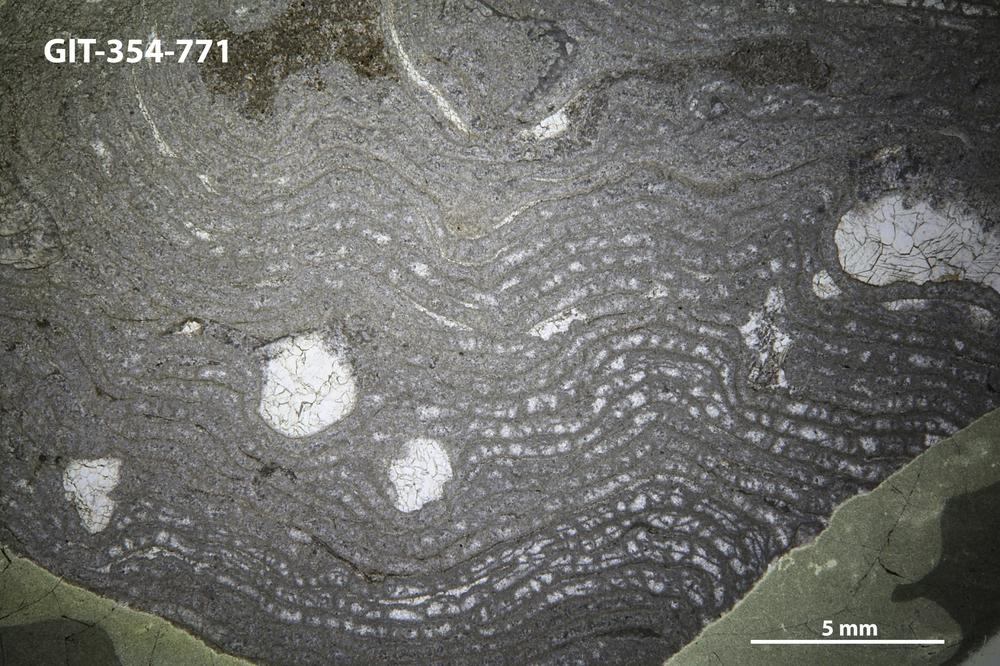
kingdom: Animalia
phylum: Porifera
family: Stromatoporellidae
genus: Simplexodictyon
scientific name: Simplexodictyon
